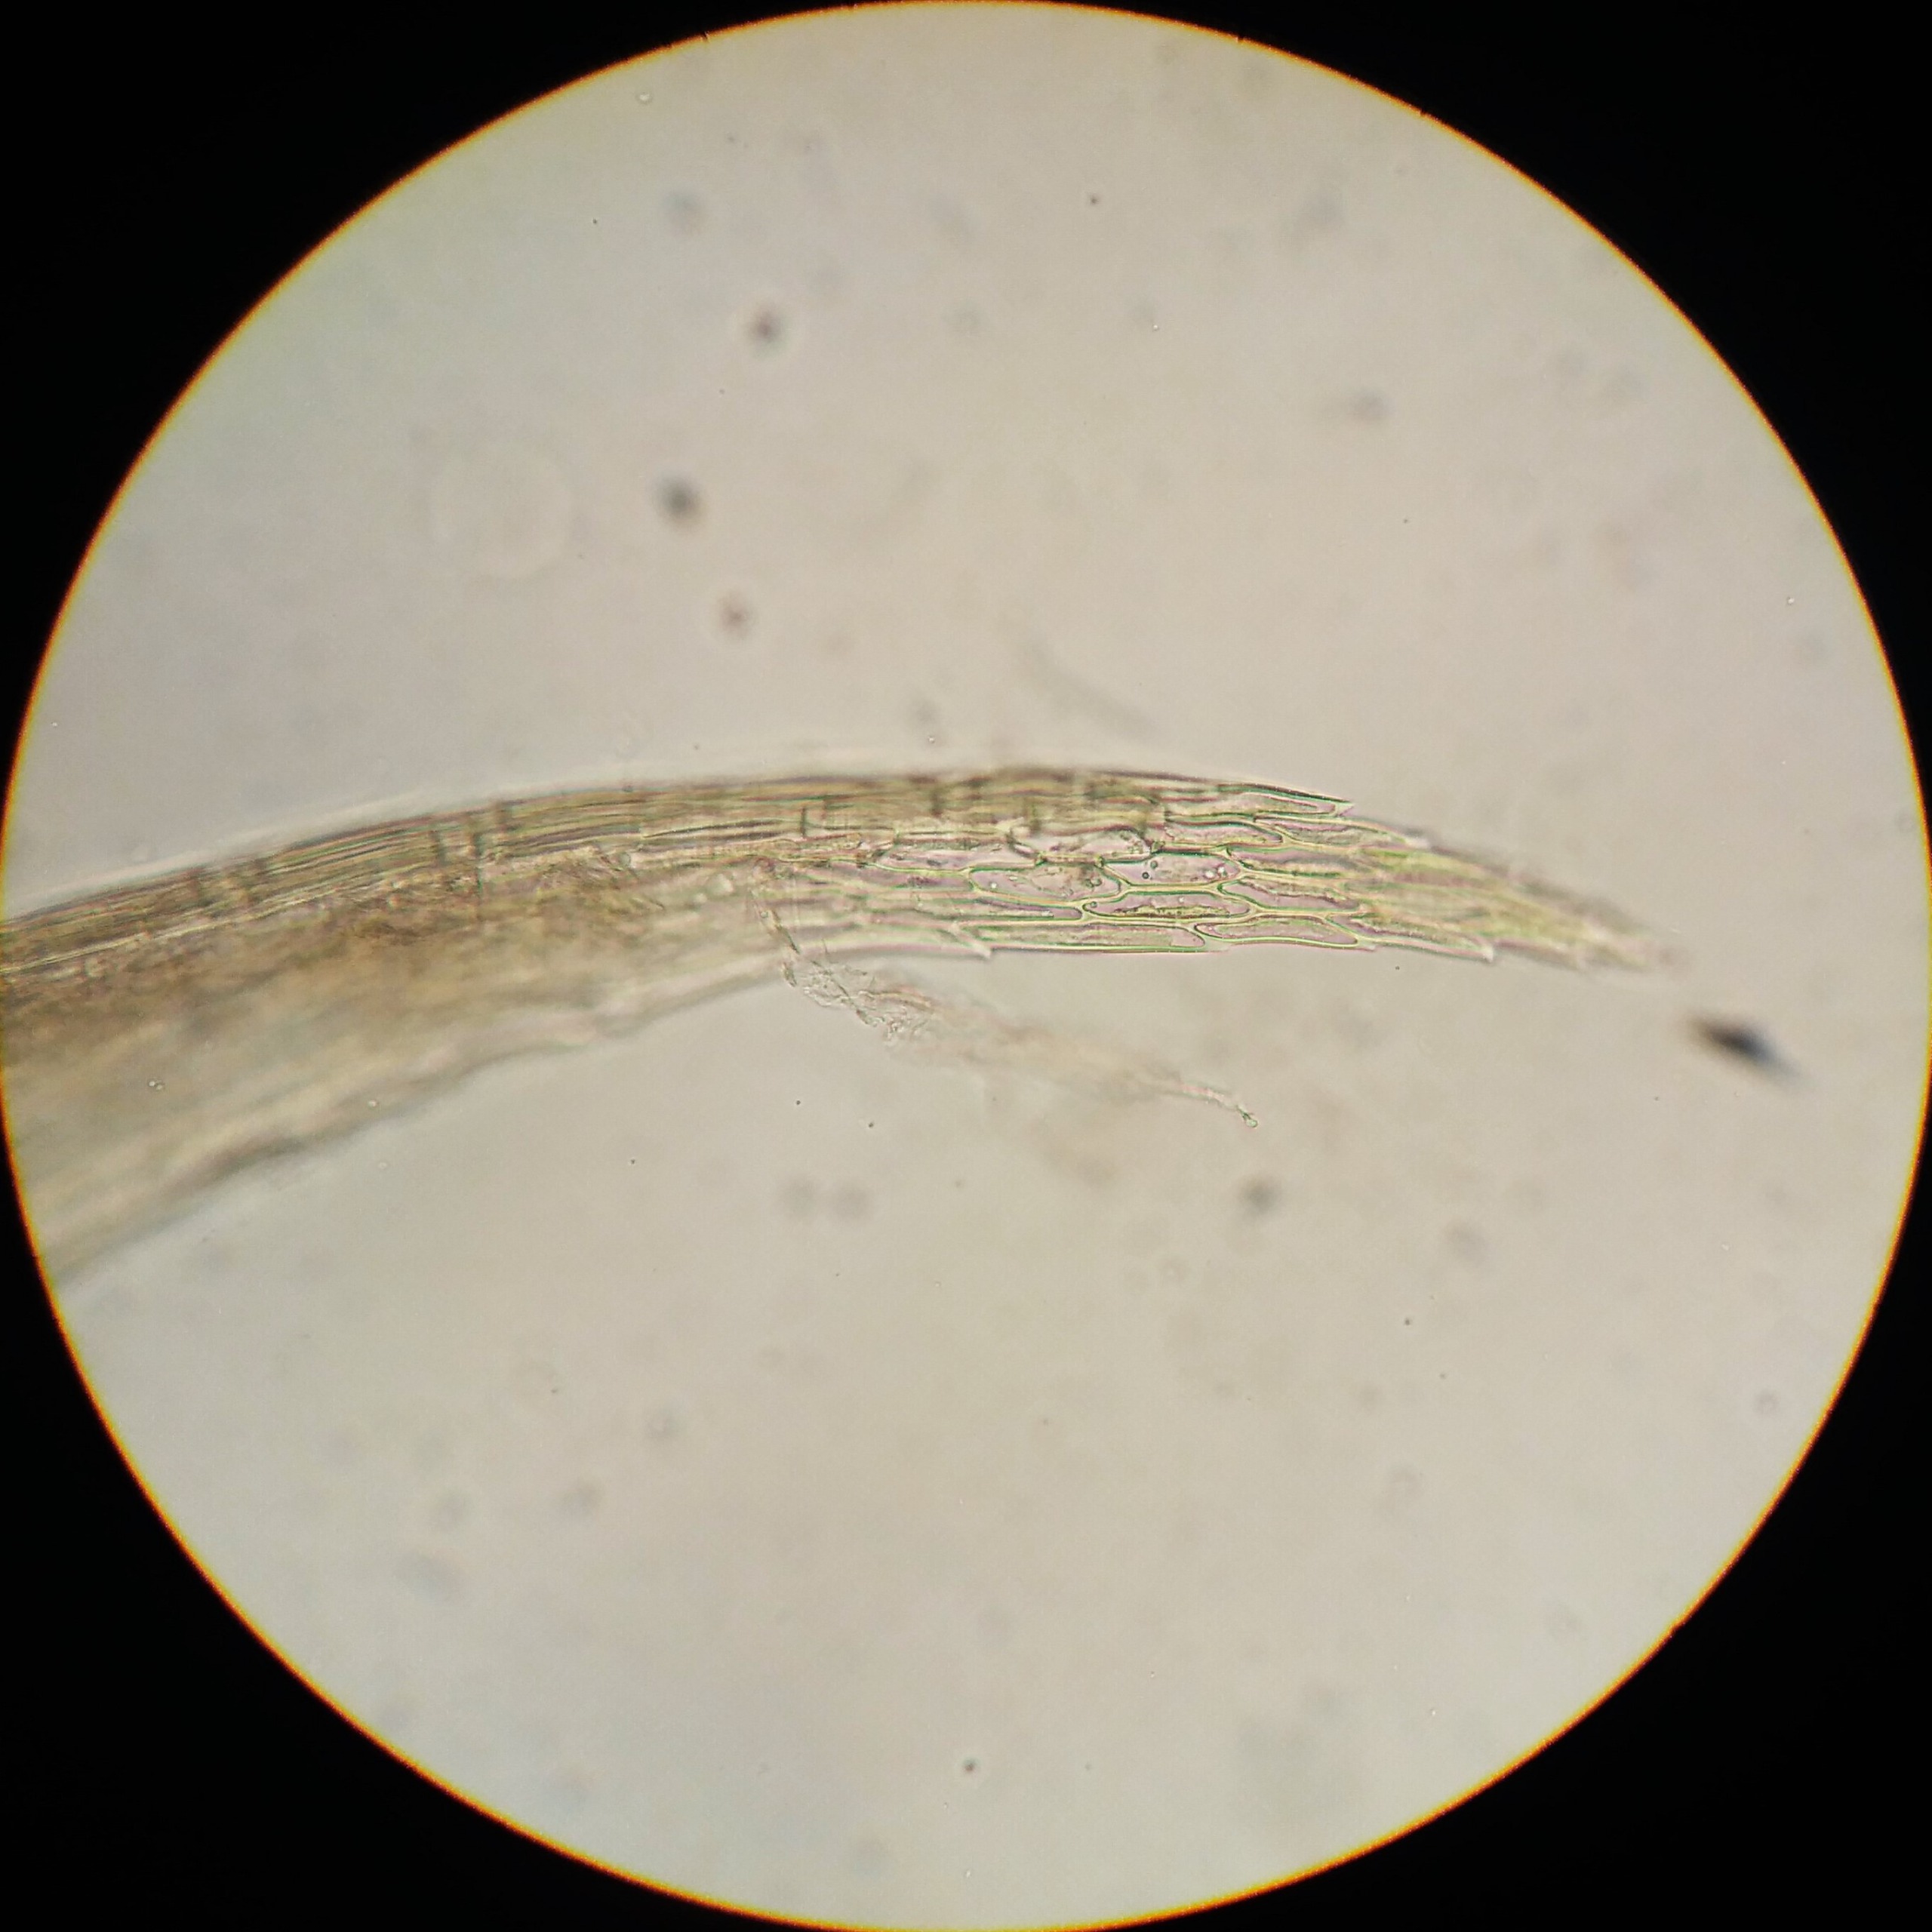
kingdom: Plantae
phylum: Bryophyta
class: Bryopsida
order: Hypnales
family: Calliergonaceae
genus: Sarmentypnum
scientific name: Sarmentypnum exannulatum
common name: Rødlig bueblad
